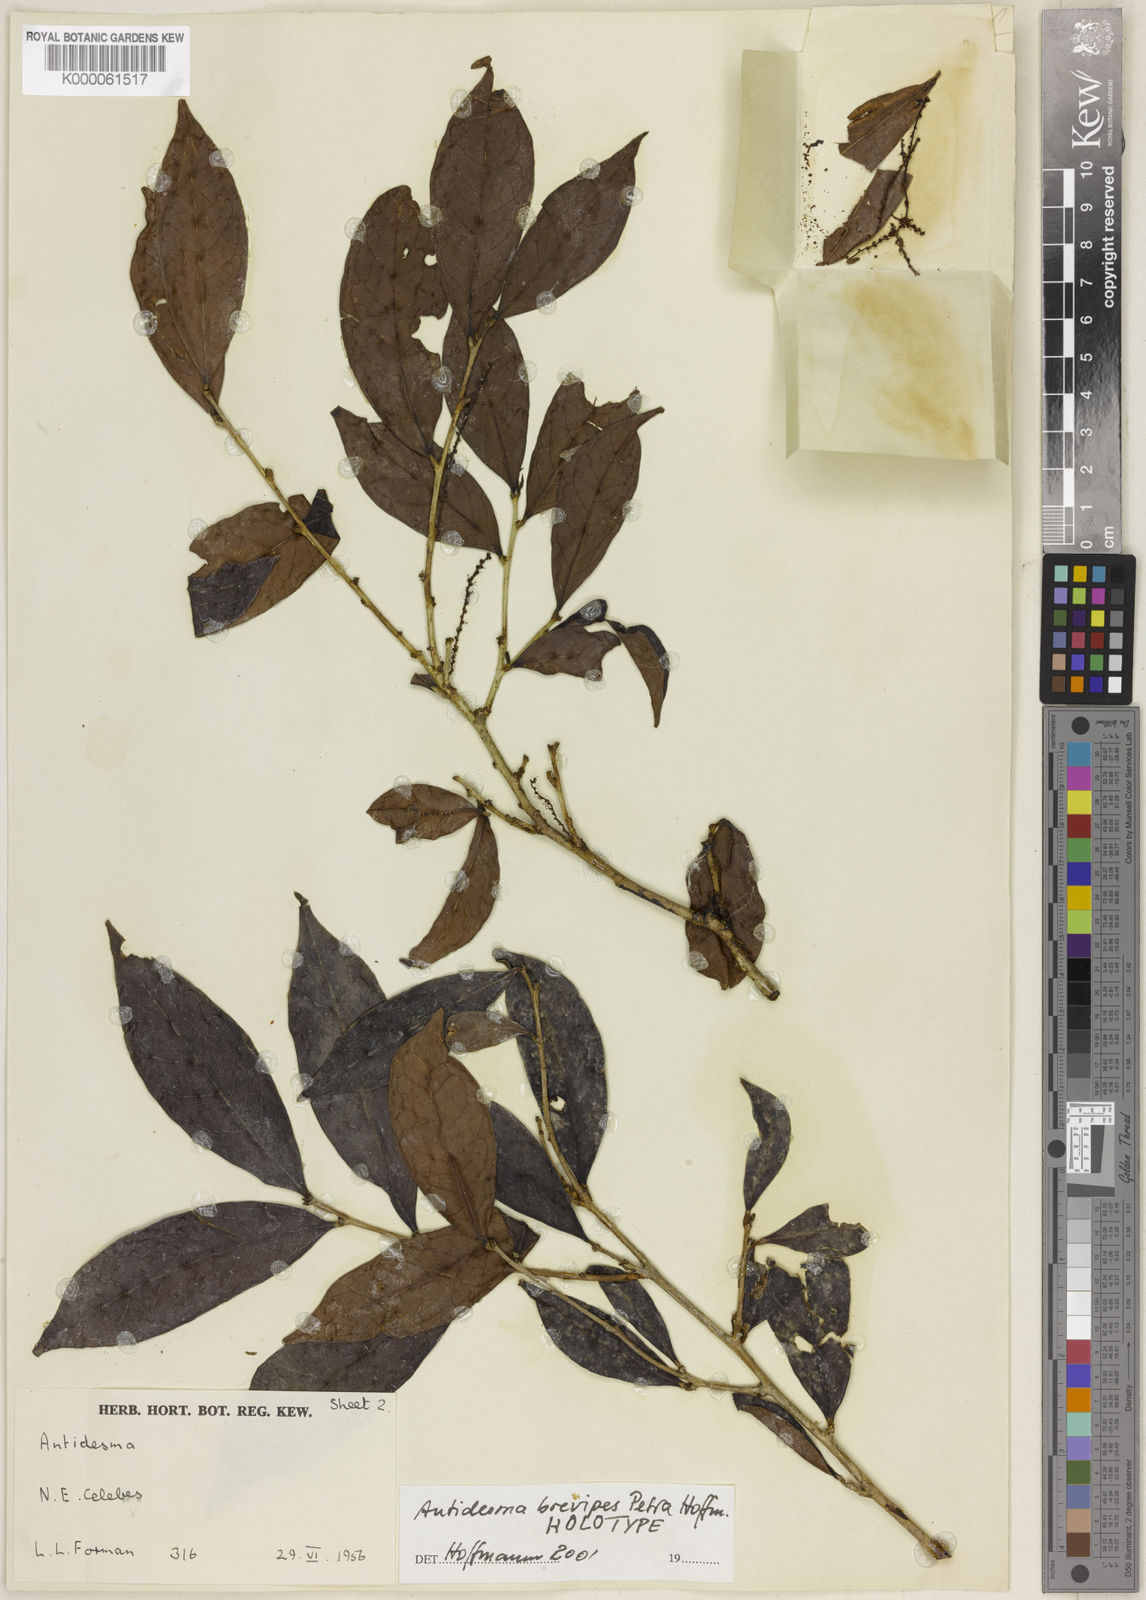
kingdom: Plantae
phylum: Tracheophyta
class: Magnoliopsida
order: Malpighiales
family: Phyllanthaceae
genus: Antidesma
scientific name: Antidesma brevipes
